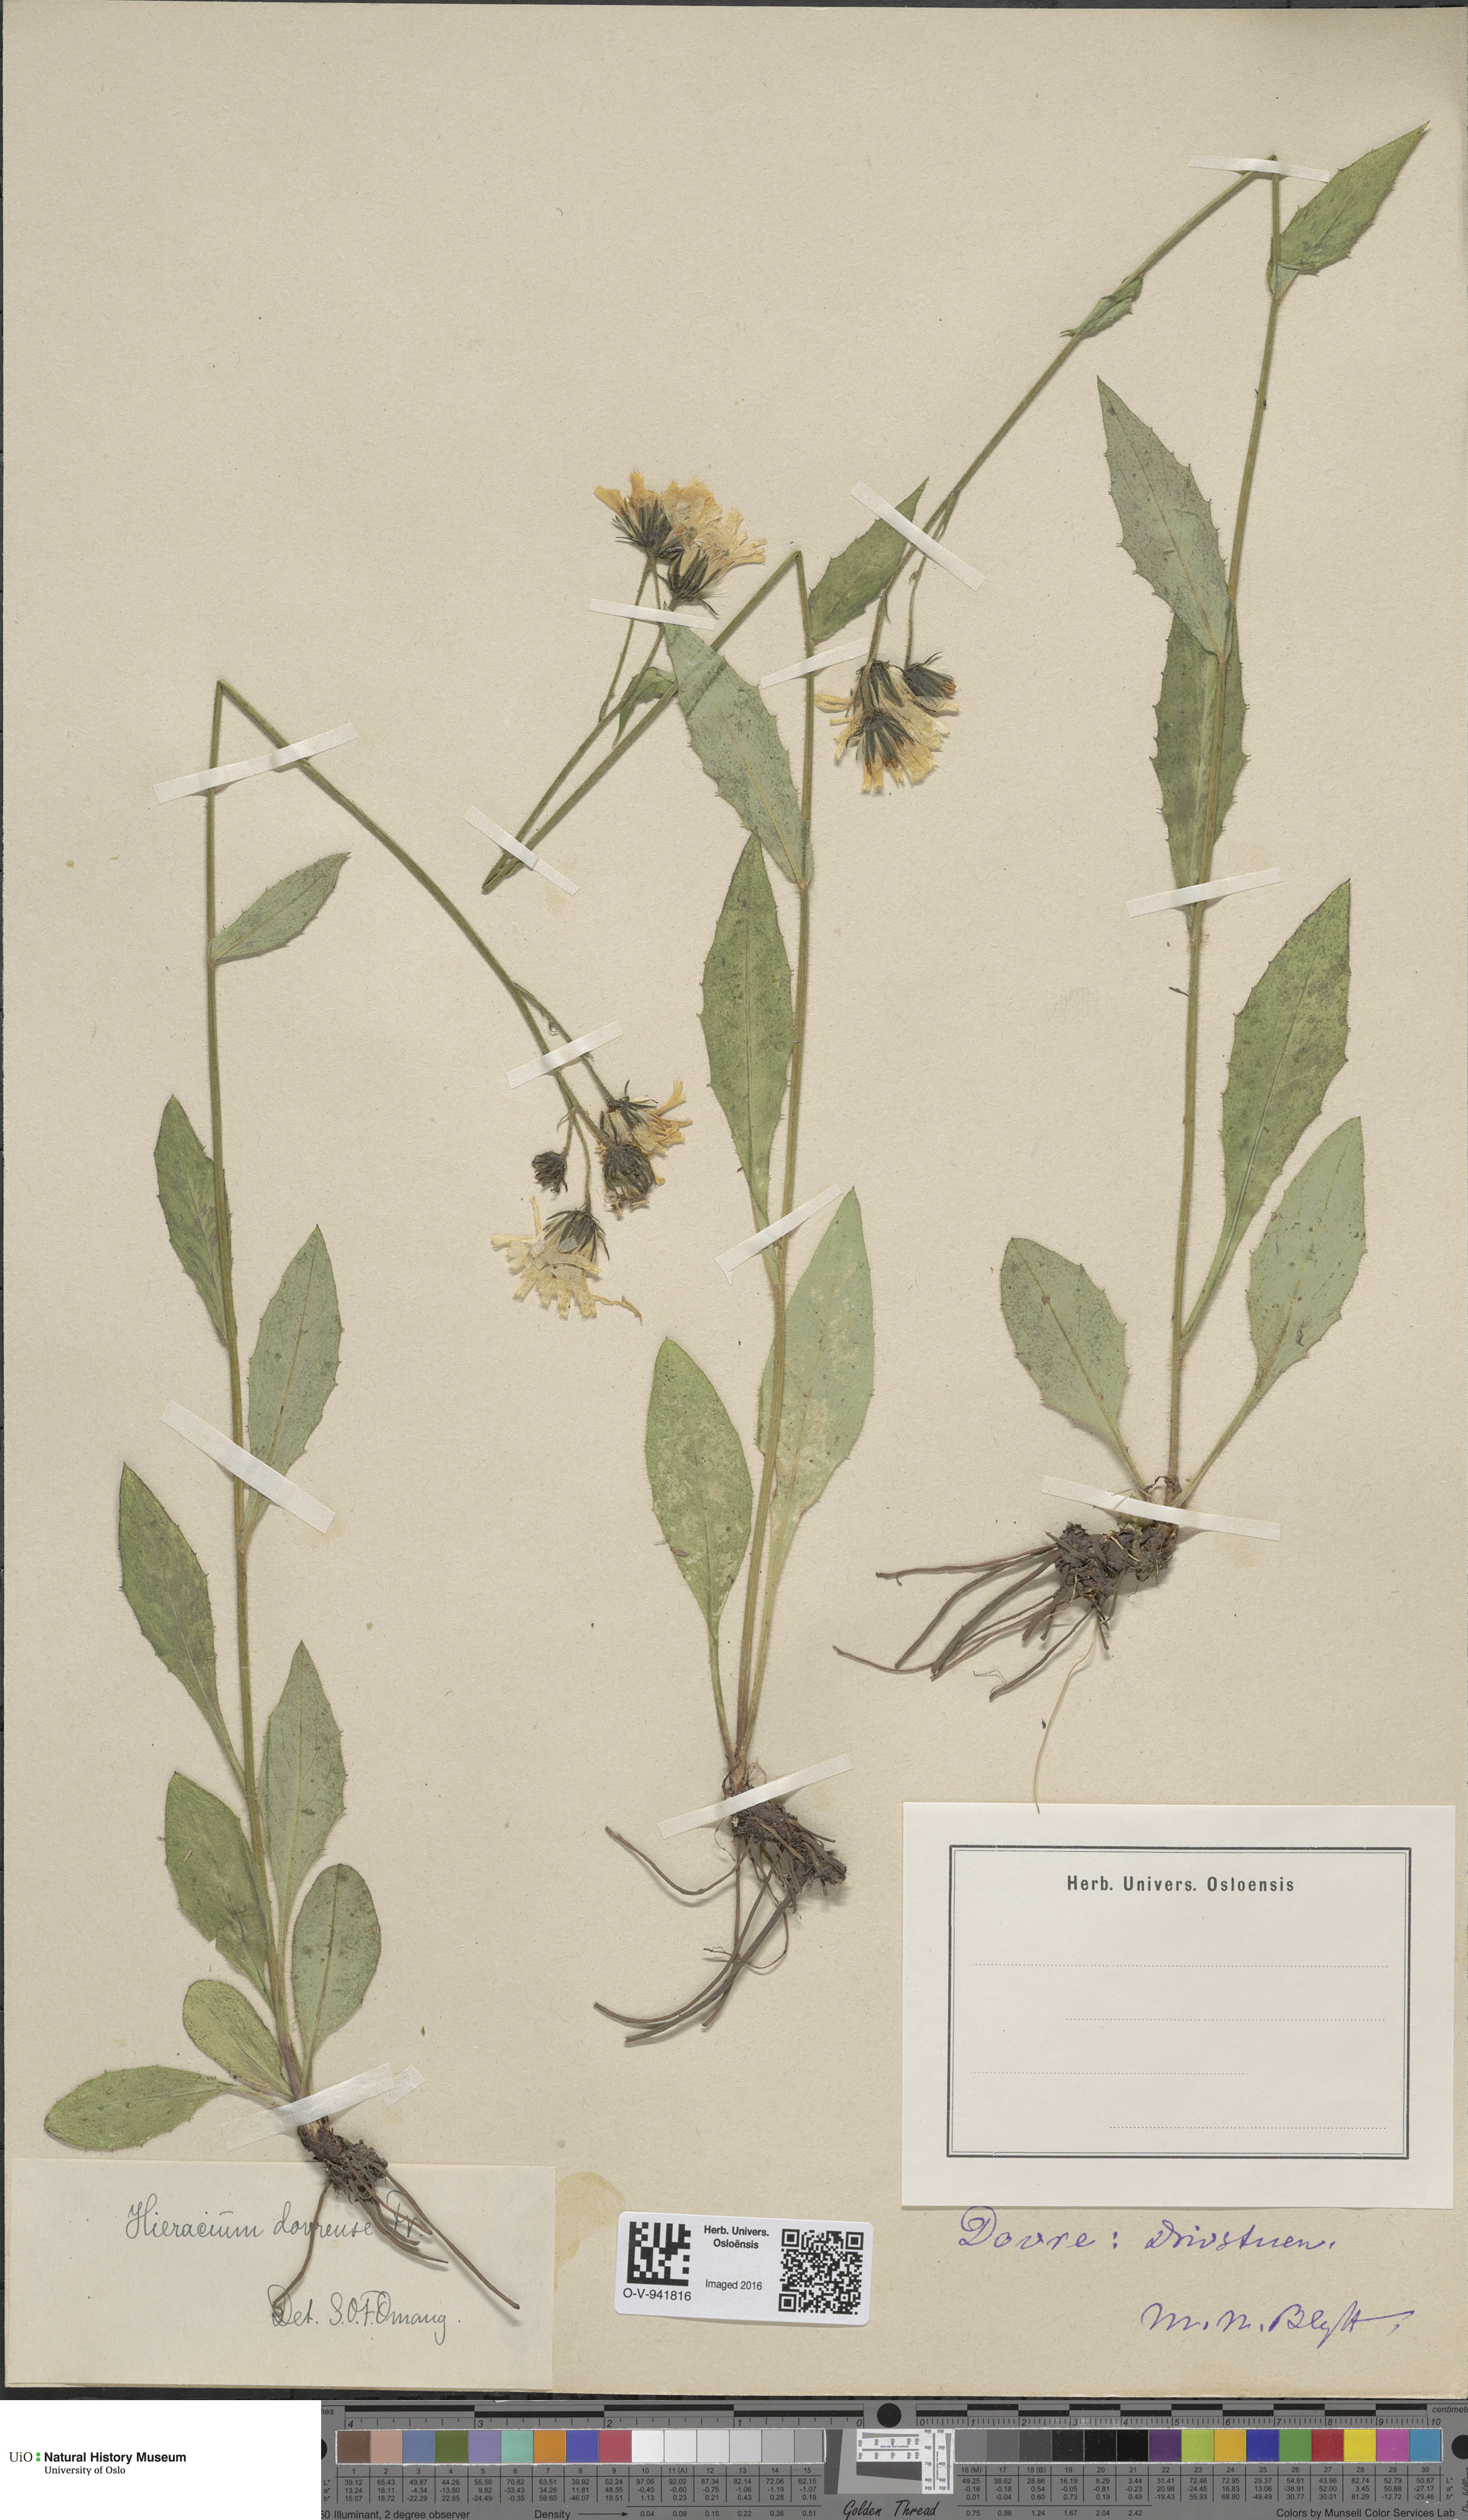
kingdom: Plantae
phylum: Tracheophyta
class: Magnoliopsida
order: Asterales
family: Asteraceae
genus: Hieracium
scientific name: Hieracium dovrense
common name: Dovre hawkweed
